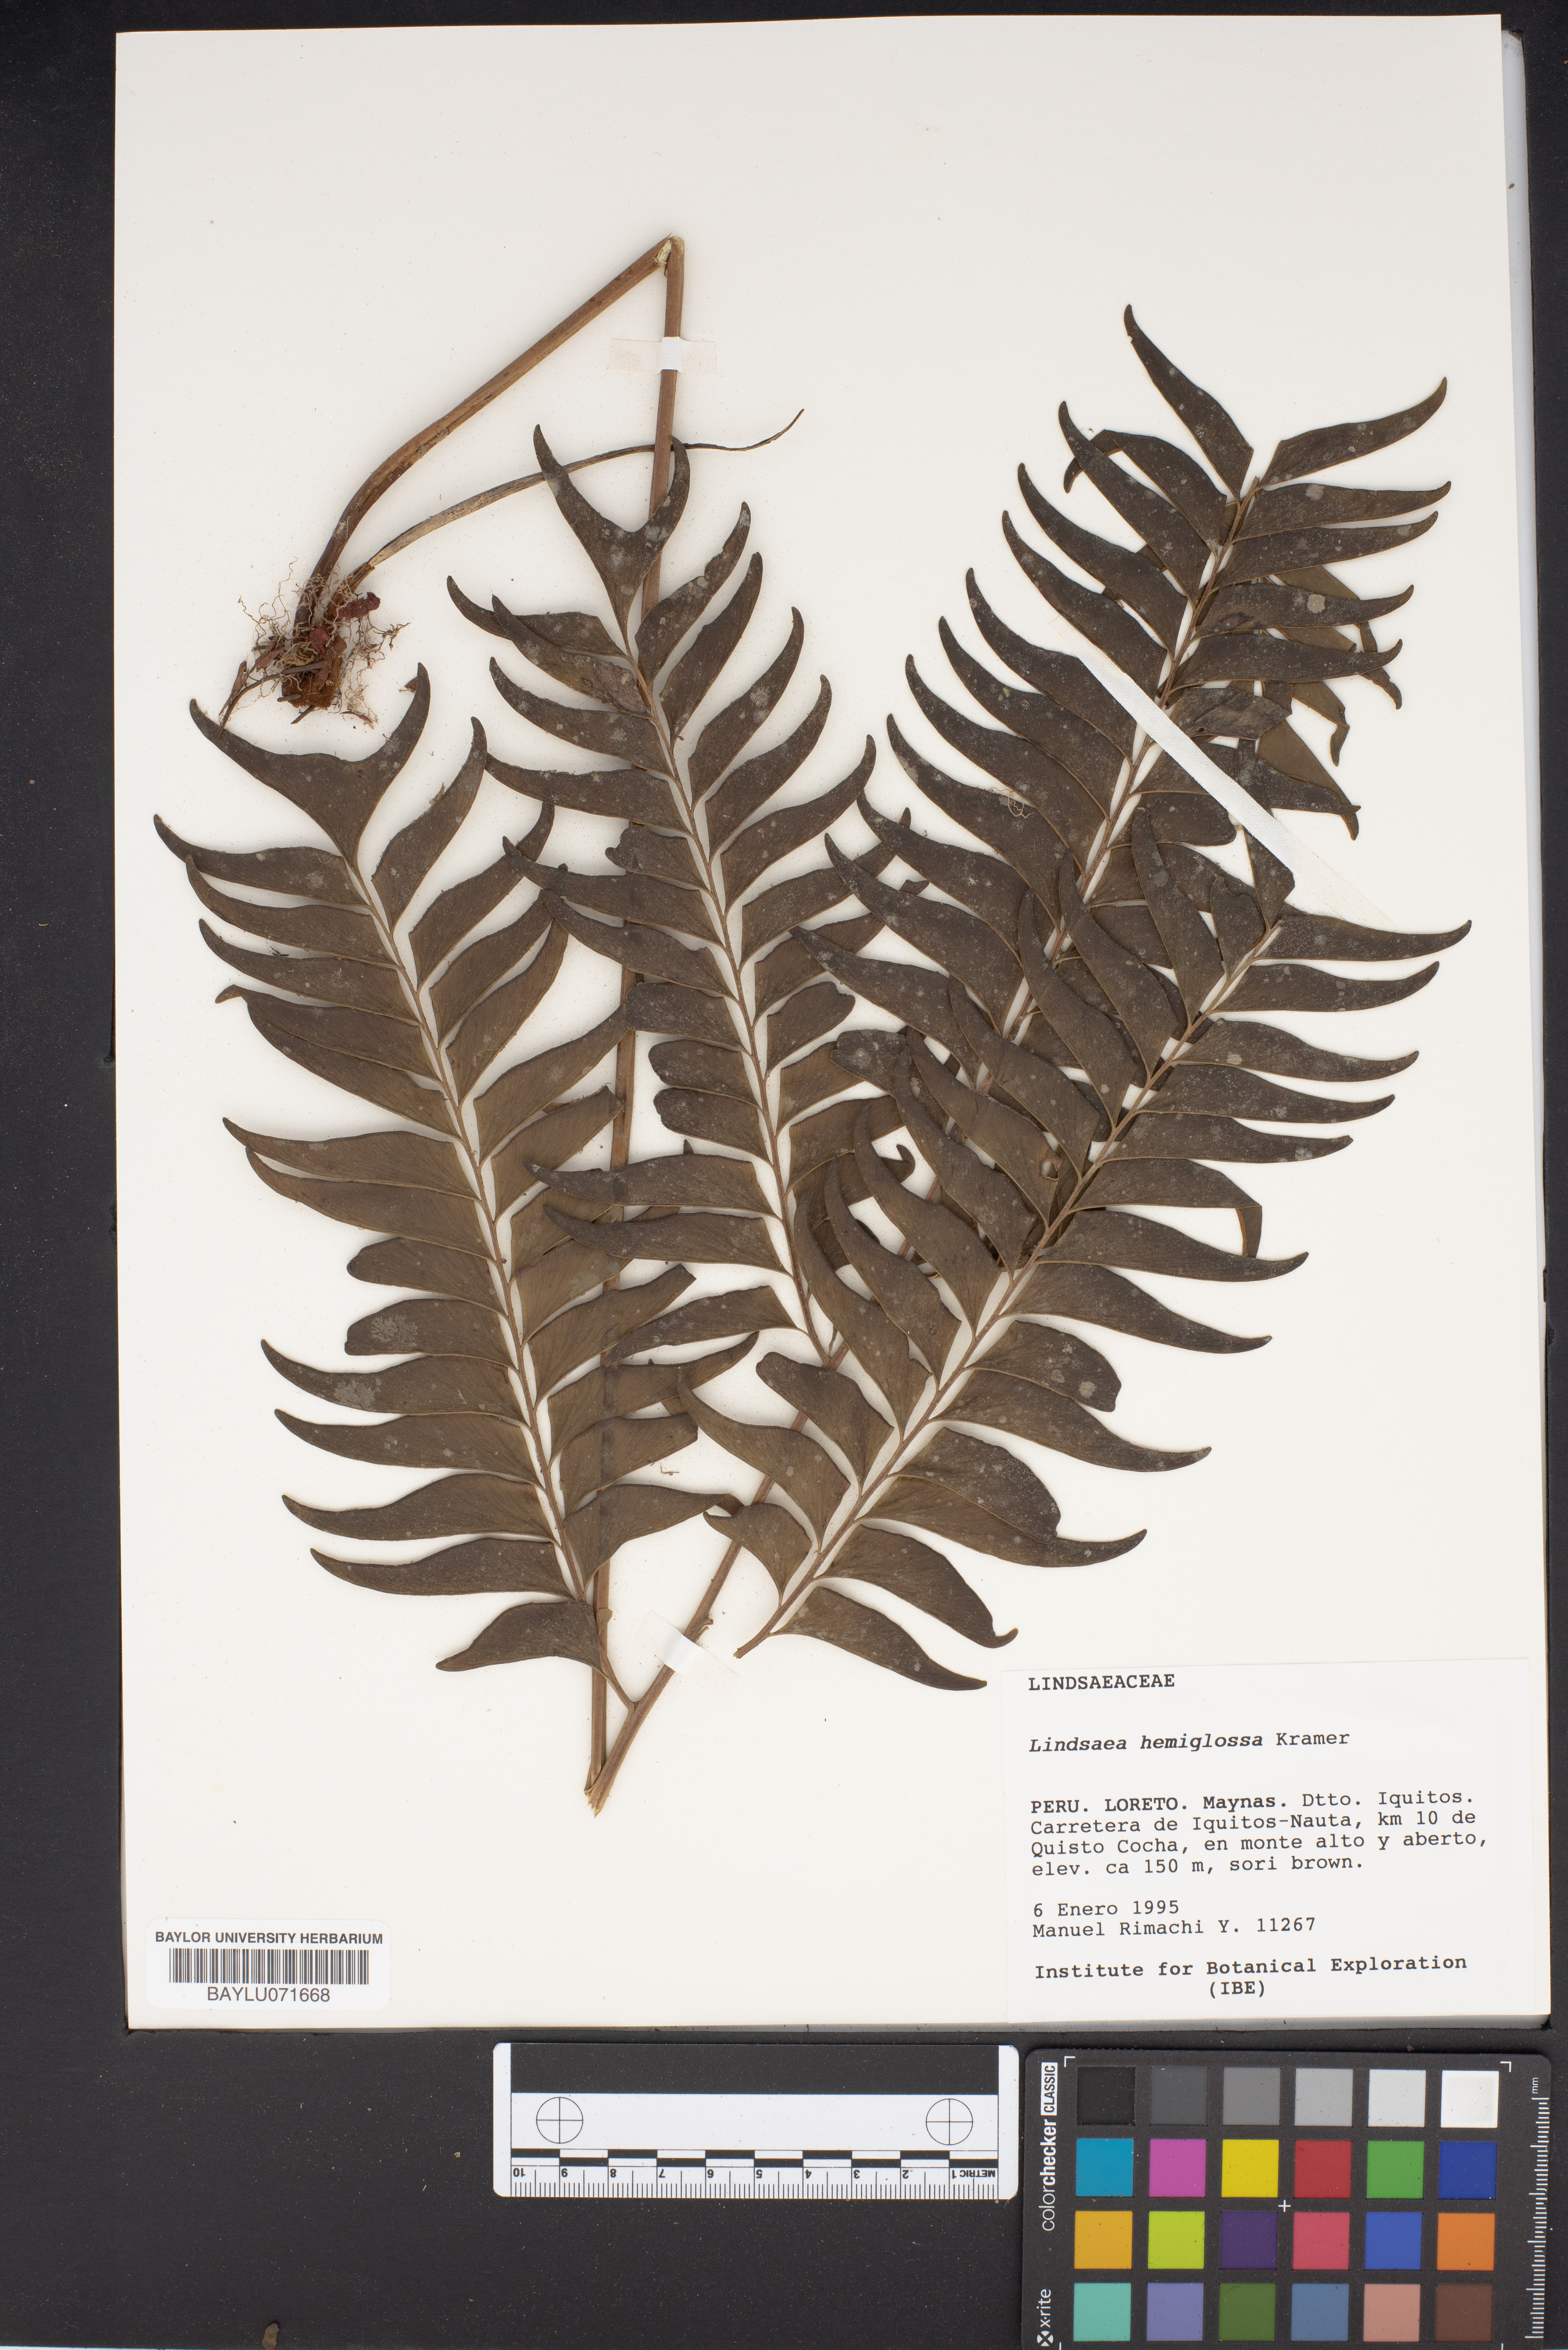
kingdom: Plantae
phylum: Tracheophyta
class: Polypodiopsida
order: Polypodiales
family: Lindsaeaceae
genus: Lindsaea
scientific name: Lindsaea hemiglossa
